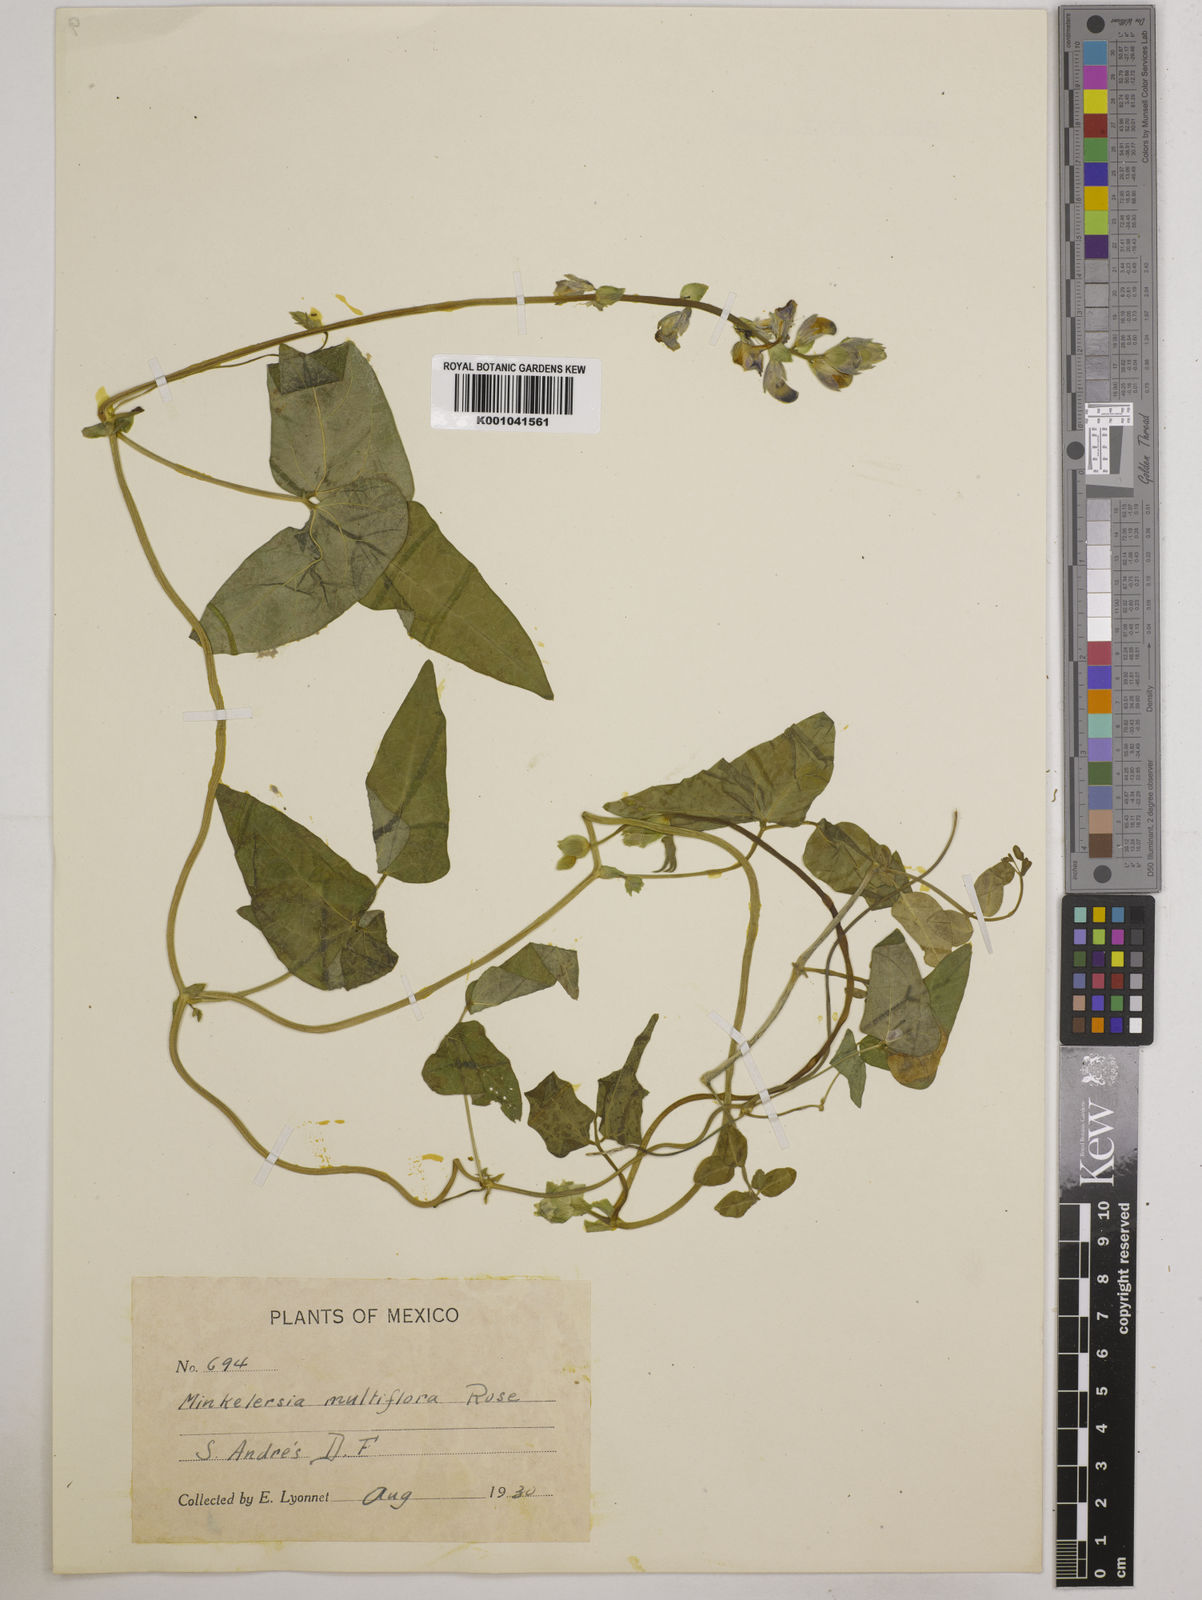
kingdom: Plantae
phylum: Tracheophyta
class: Magnoliopsida
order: Fabales
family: Fabaceae
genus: Phaseolus
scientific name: Phaseolus vulcanicus
